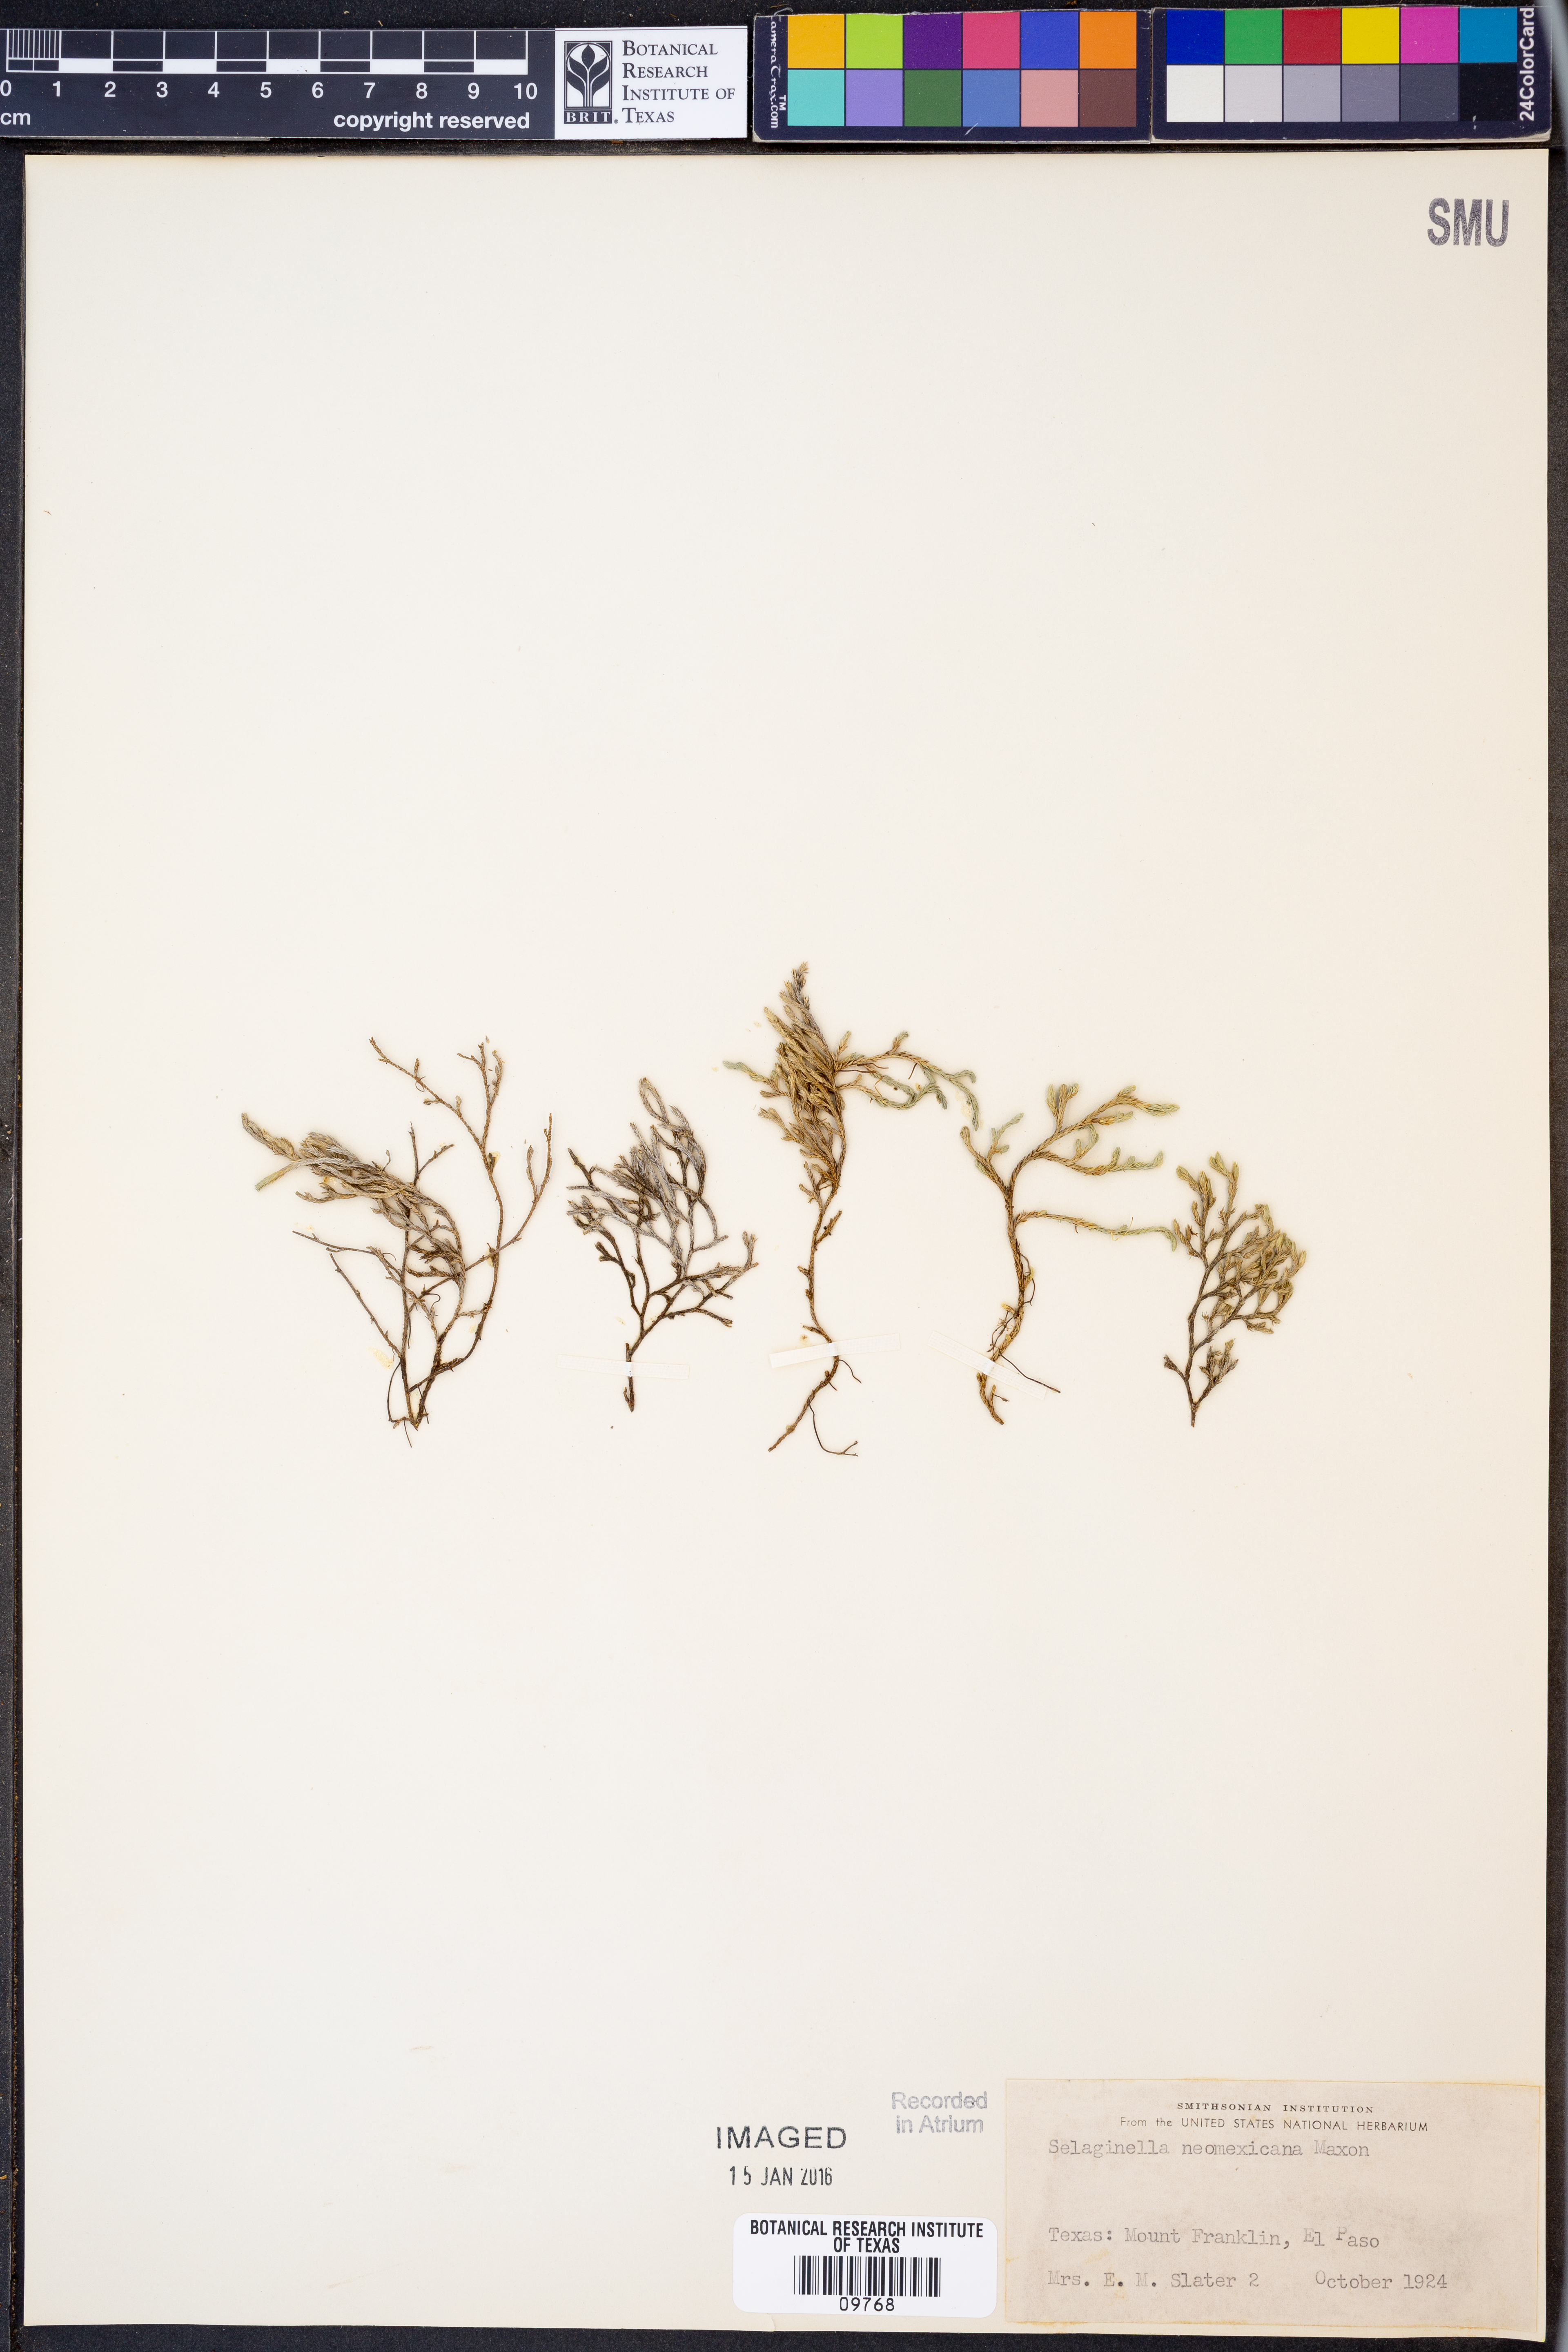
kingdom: Plantae
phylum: Tracheophyta
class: Lycopodiopsida
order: Selaginellales
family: Selaginellaceae
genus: Selaginella
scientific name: Selaginella neomexicana
